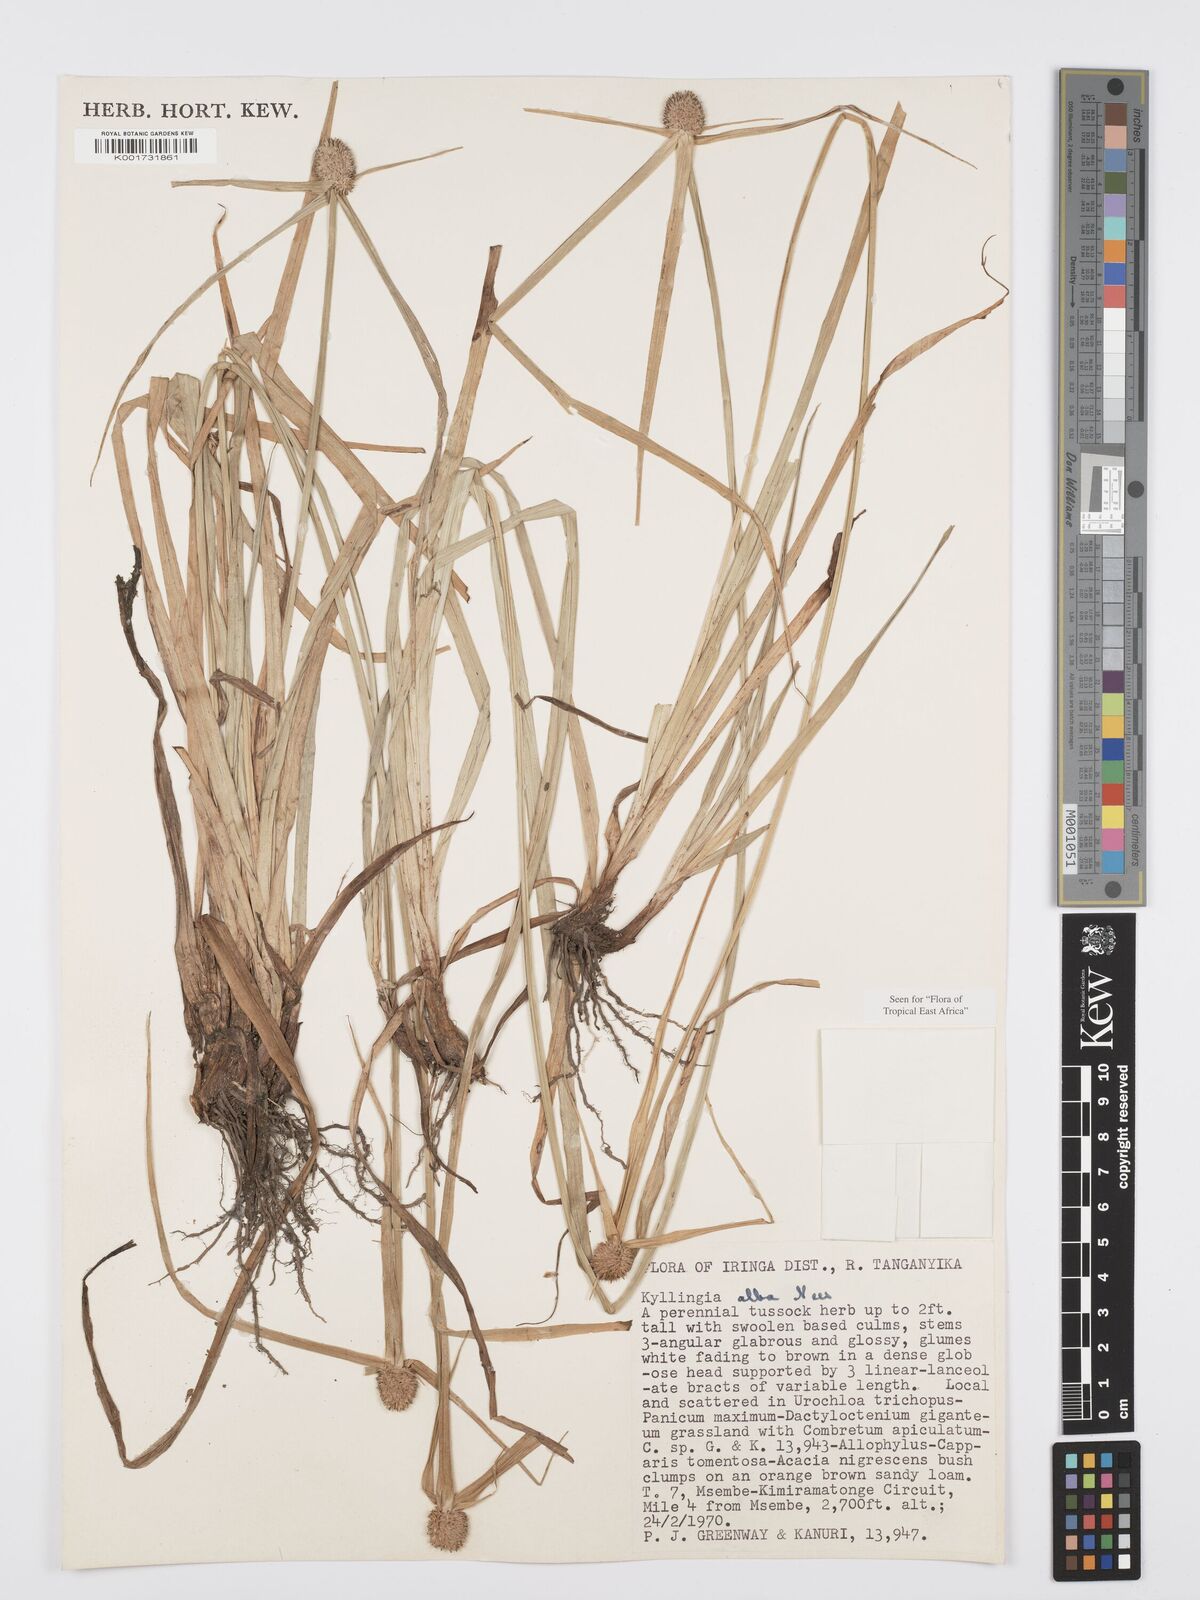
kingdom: Plantae
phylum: Tracheophyta
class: Liliopsida
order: Poales
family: Cyperaceae
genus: Cyperus
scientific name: Cyperus
